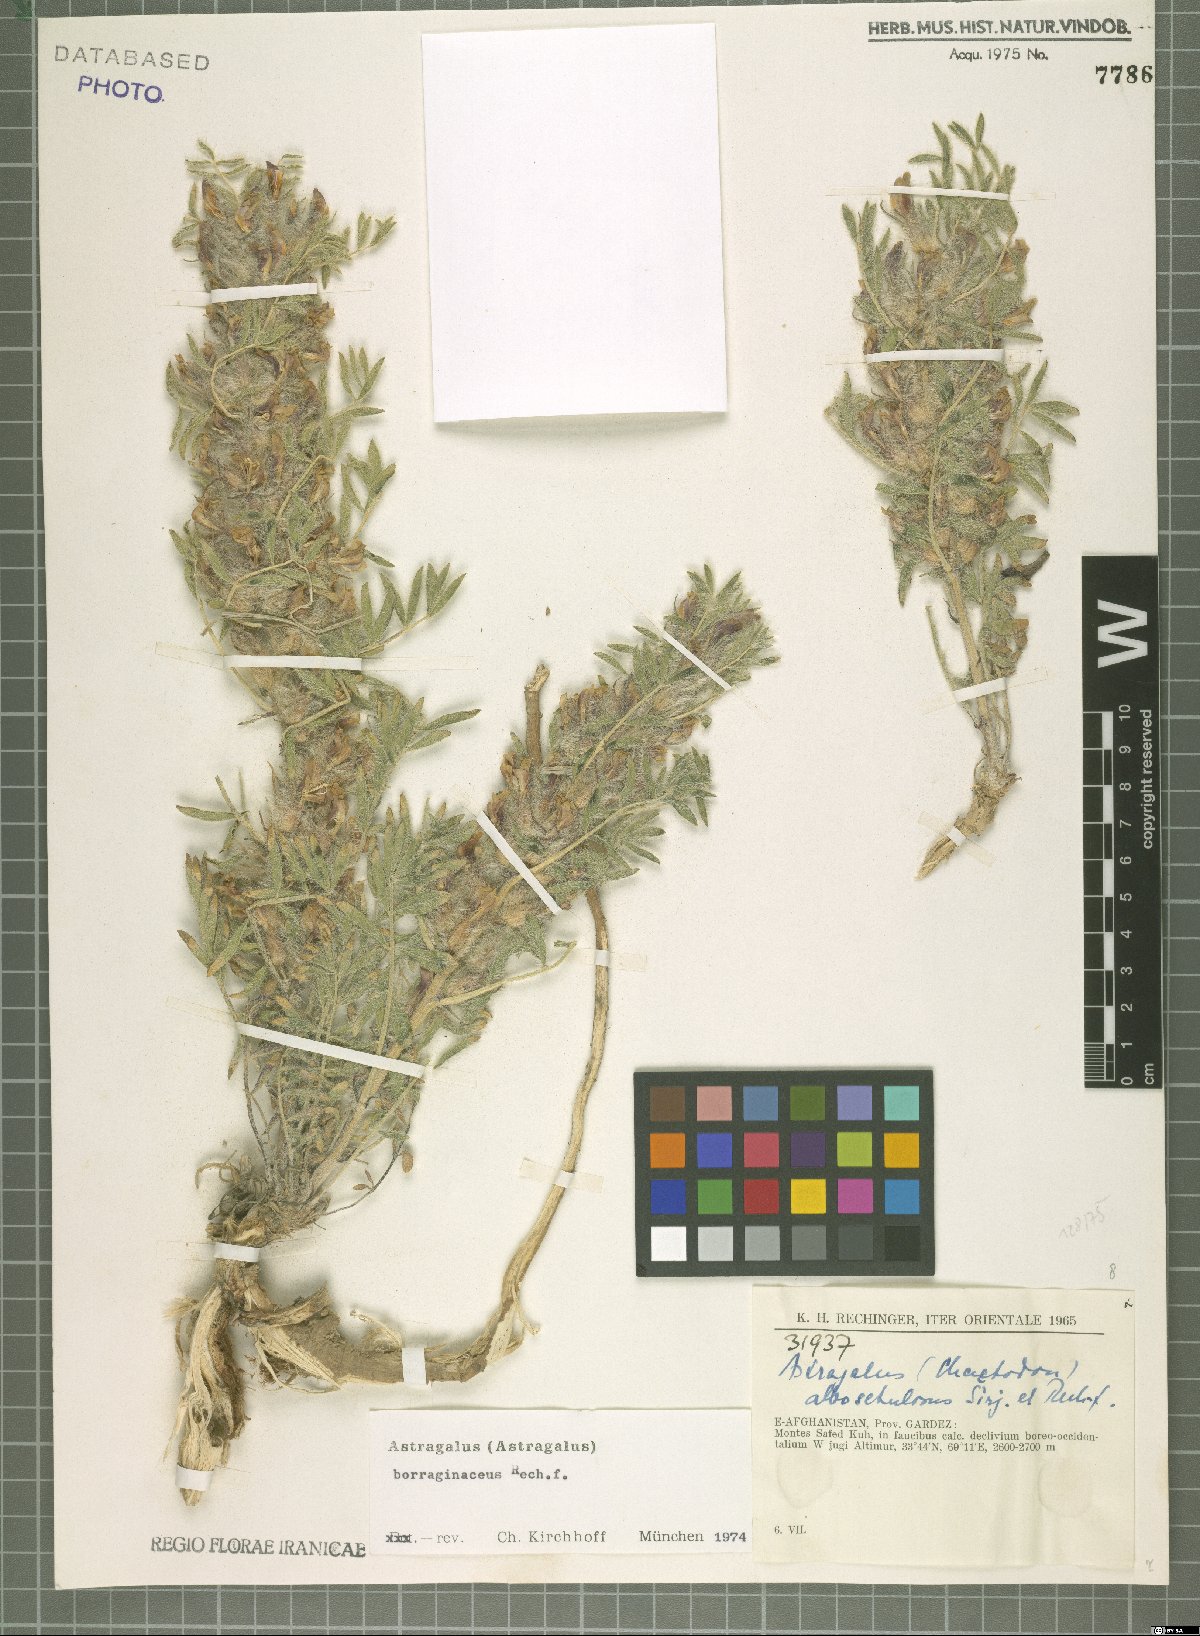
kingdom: Plantae
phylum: Tracheophyta
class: Magnoliopsida
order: Fabales
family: Fabaceae
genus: Astragalus
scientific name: Astragalus borraginaceus
